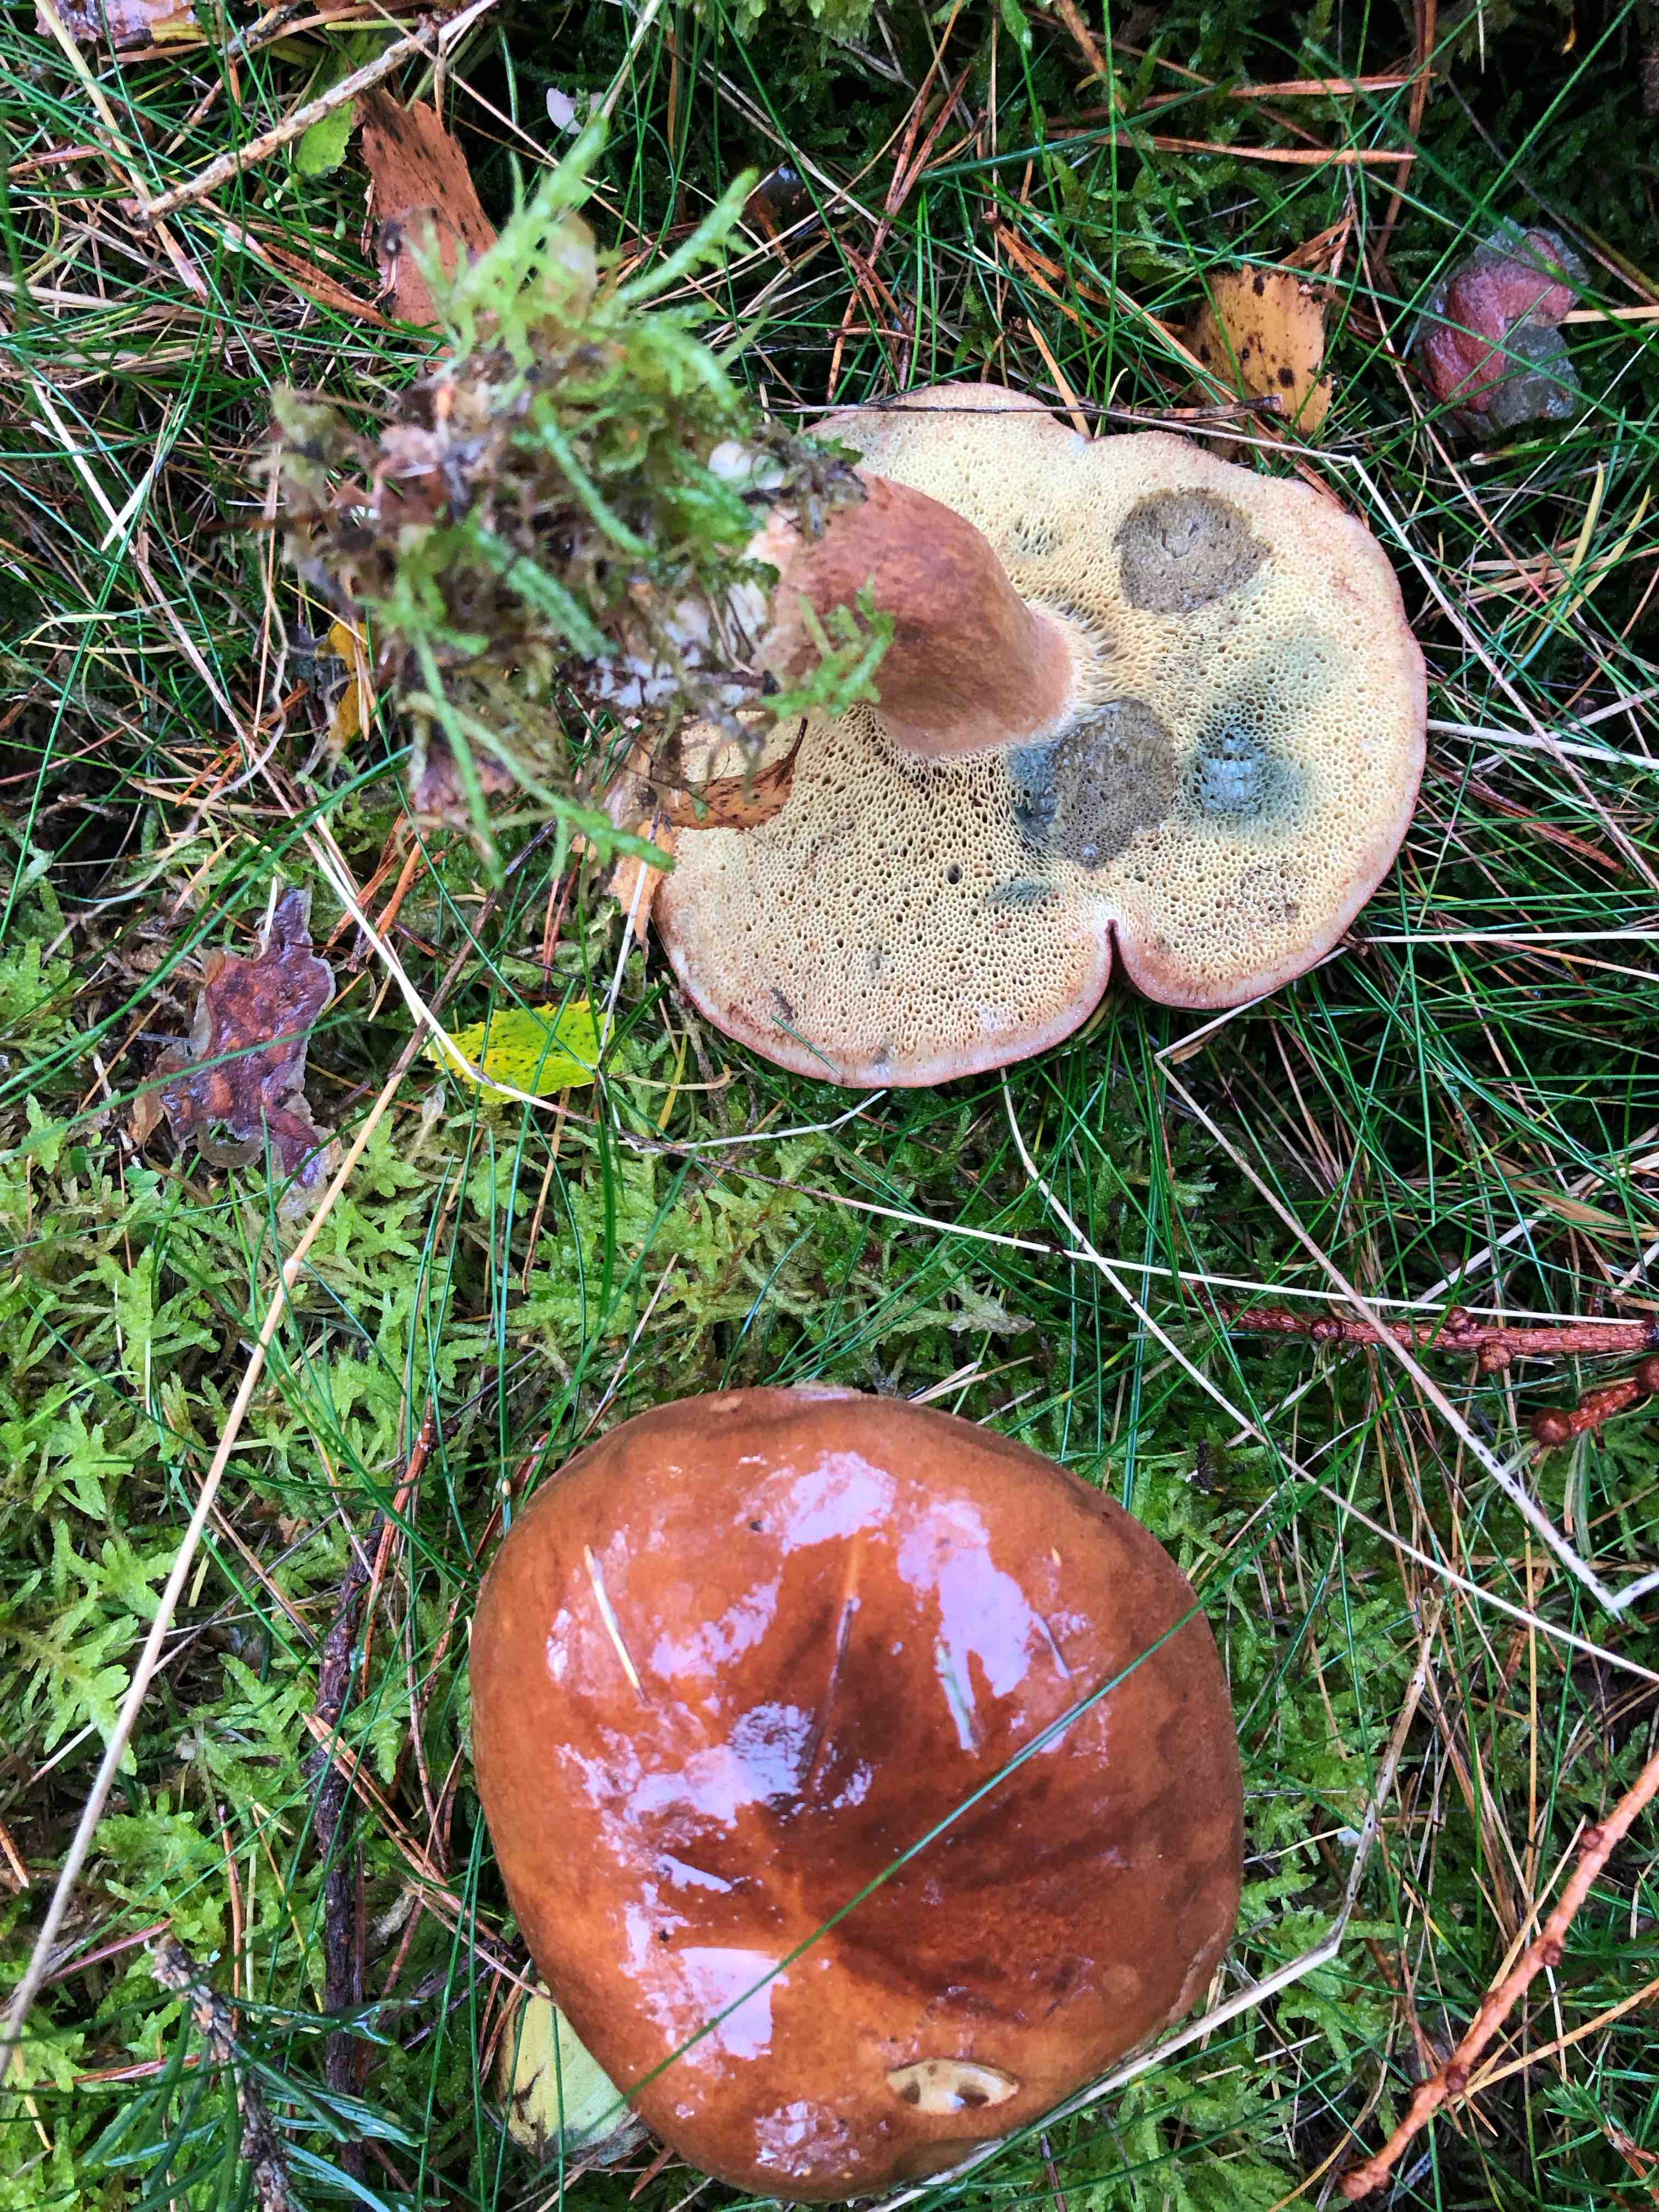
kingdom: Fungi
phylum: Basidiomycota
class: Agaricomycetes
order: Boletales
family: Boletaceae
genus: Imleria
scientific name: Imleria badia
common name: brunstokket rørhat
